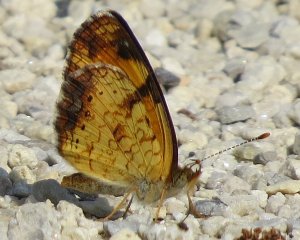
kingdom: Animalia
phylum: Arthropoda
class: Insecta
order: Lepidoptera
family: Nymphalidae
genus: Phyciodes
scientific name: Phyciodes tharos
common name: Pearl Crescent
